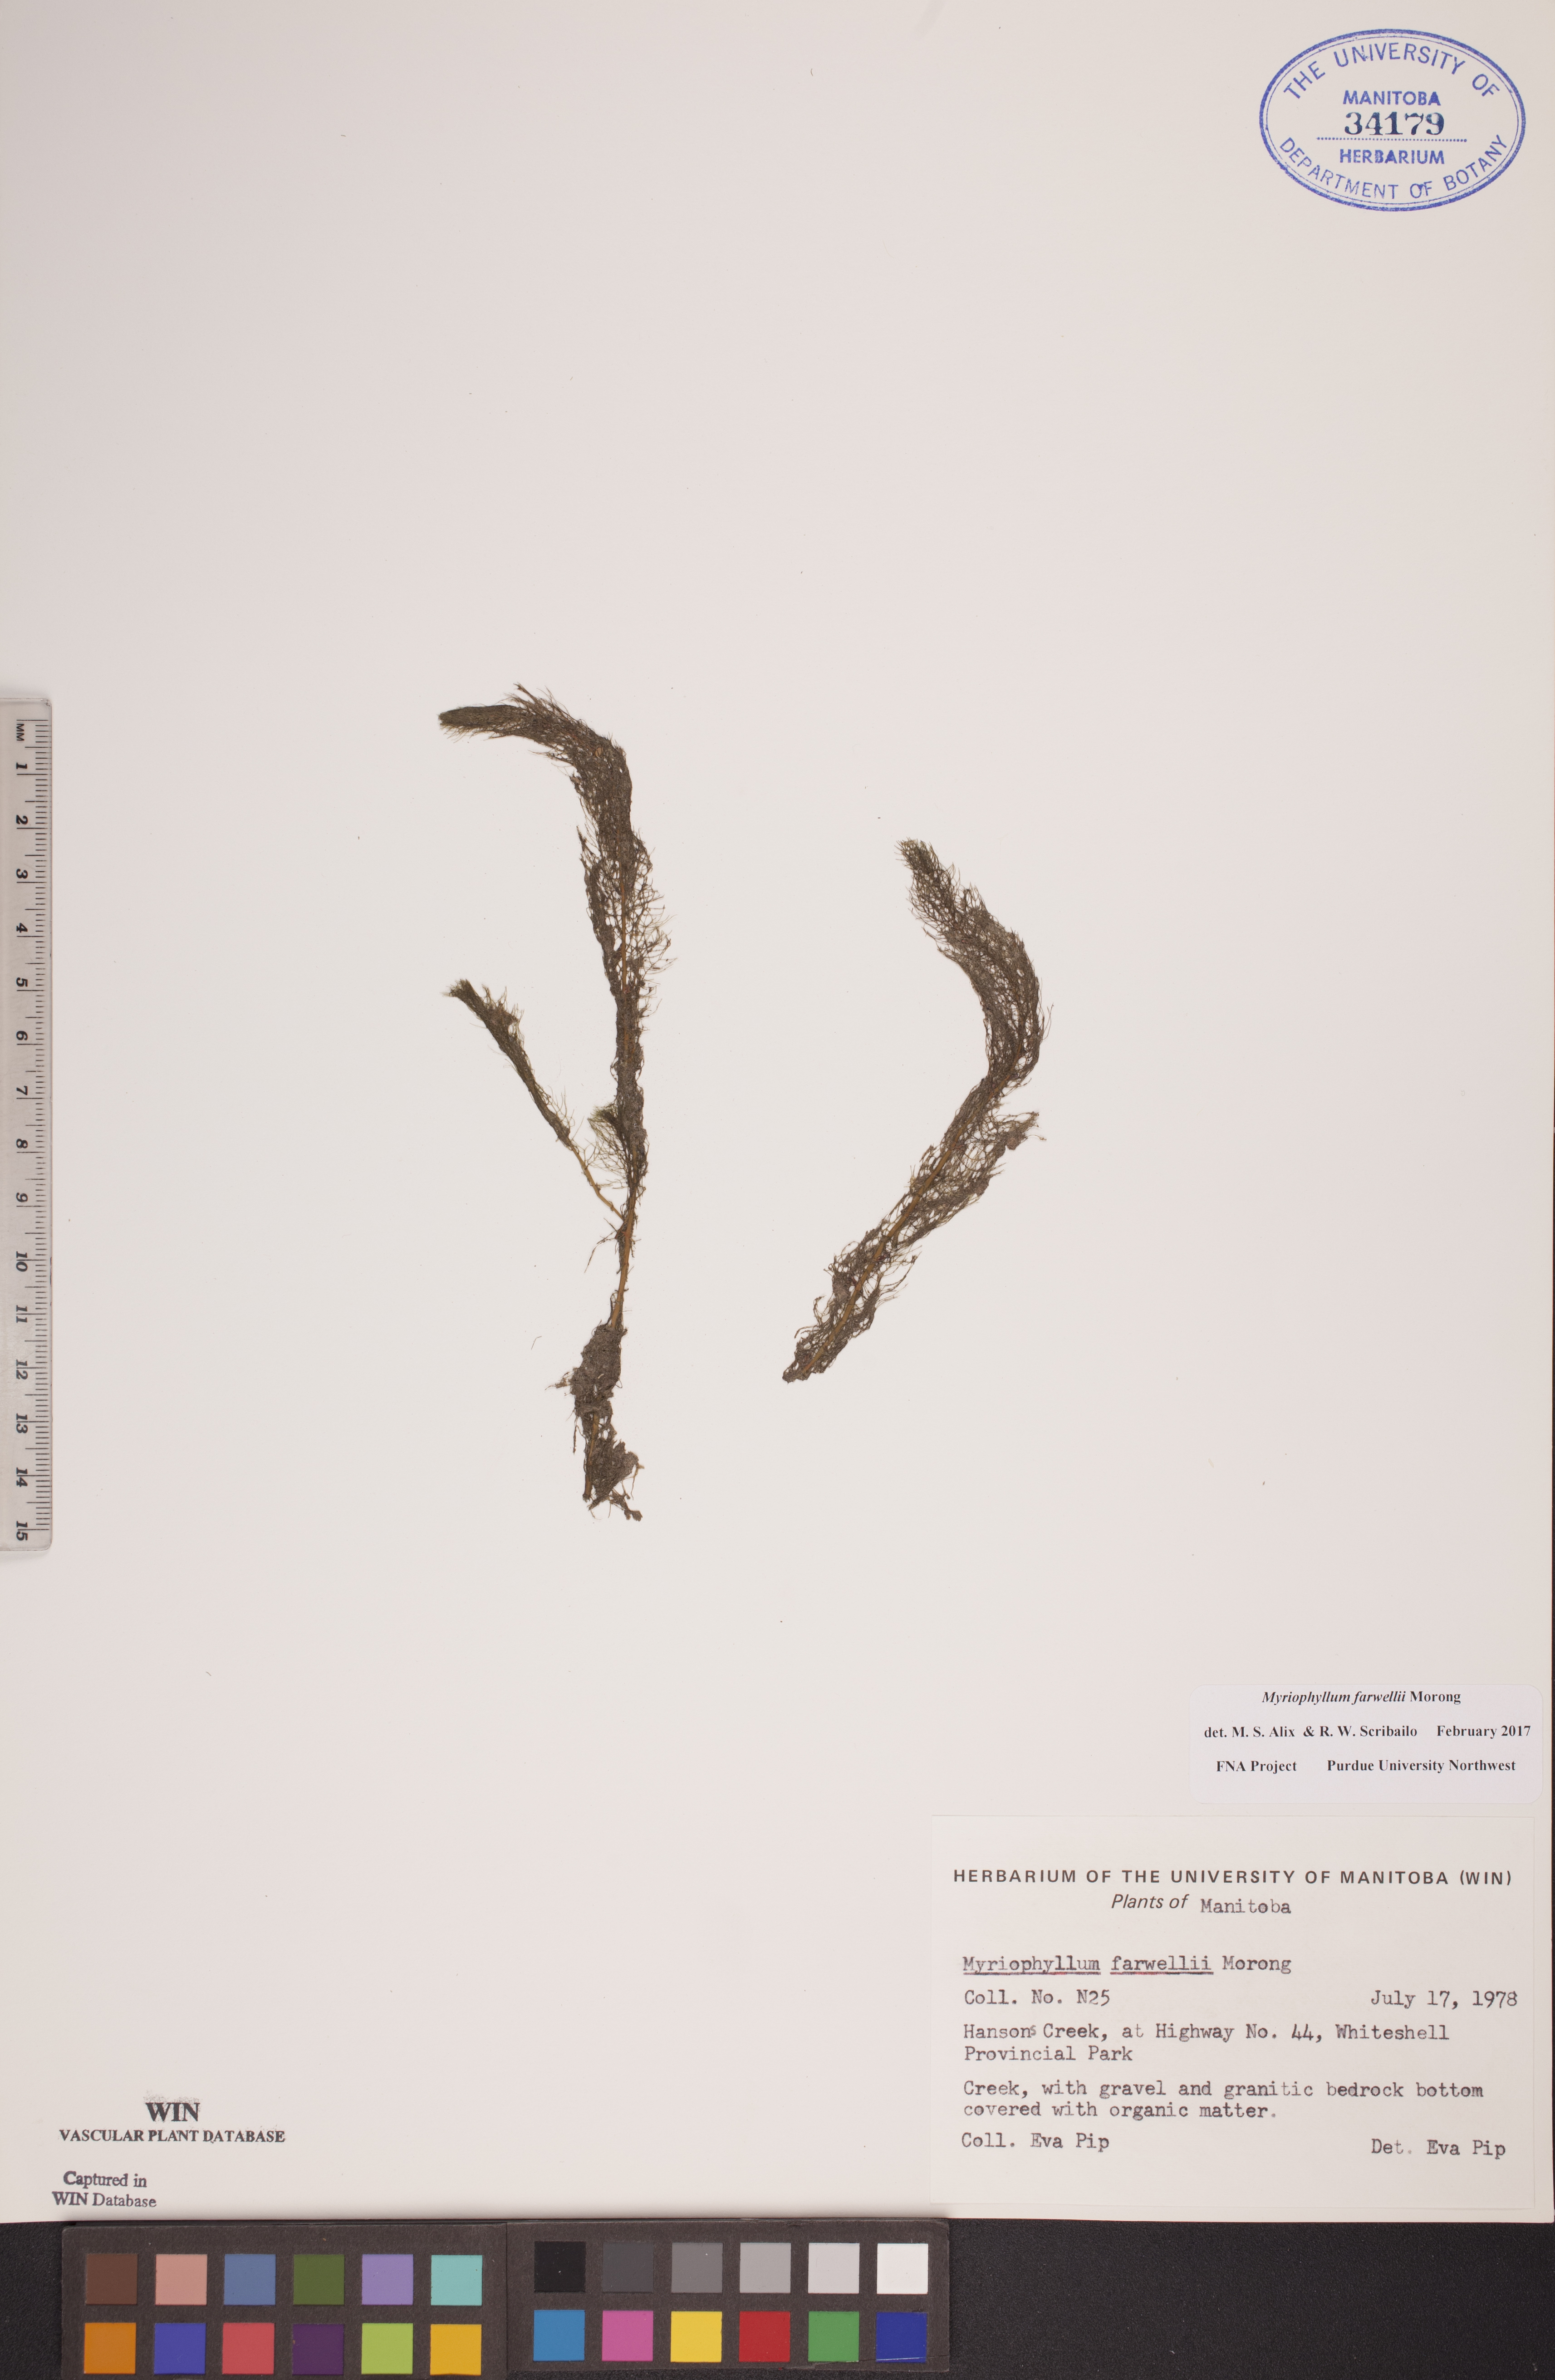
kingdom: Plantae
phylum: Tracheophyta
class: Magnoliopsida
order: Saxifragales
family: Haloragaceae
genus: Myriophyllum
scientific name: Myriophyllum farwellii
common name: Farwell's water-milfoil
